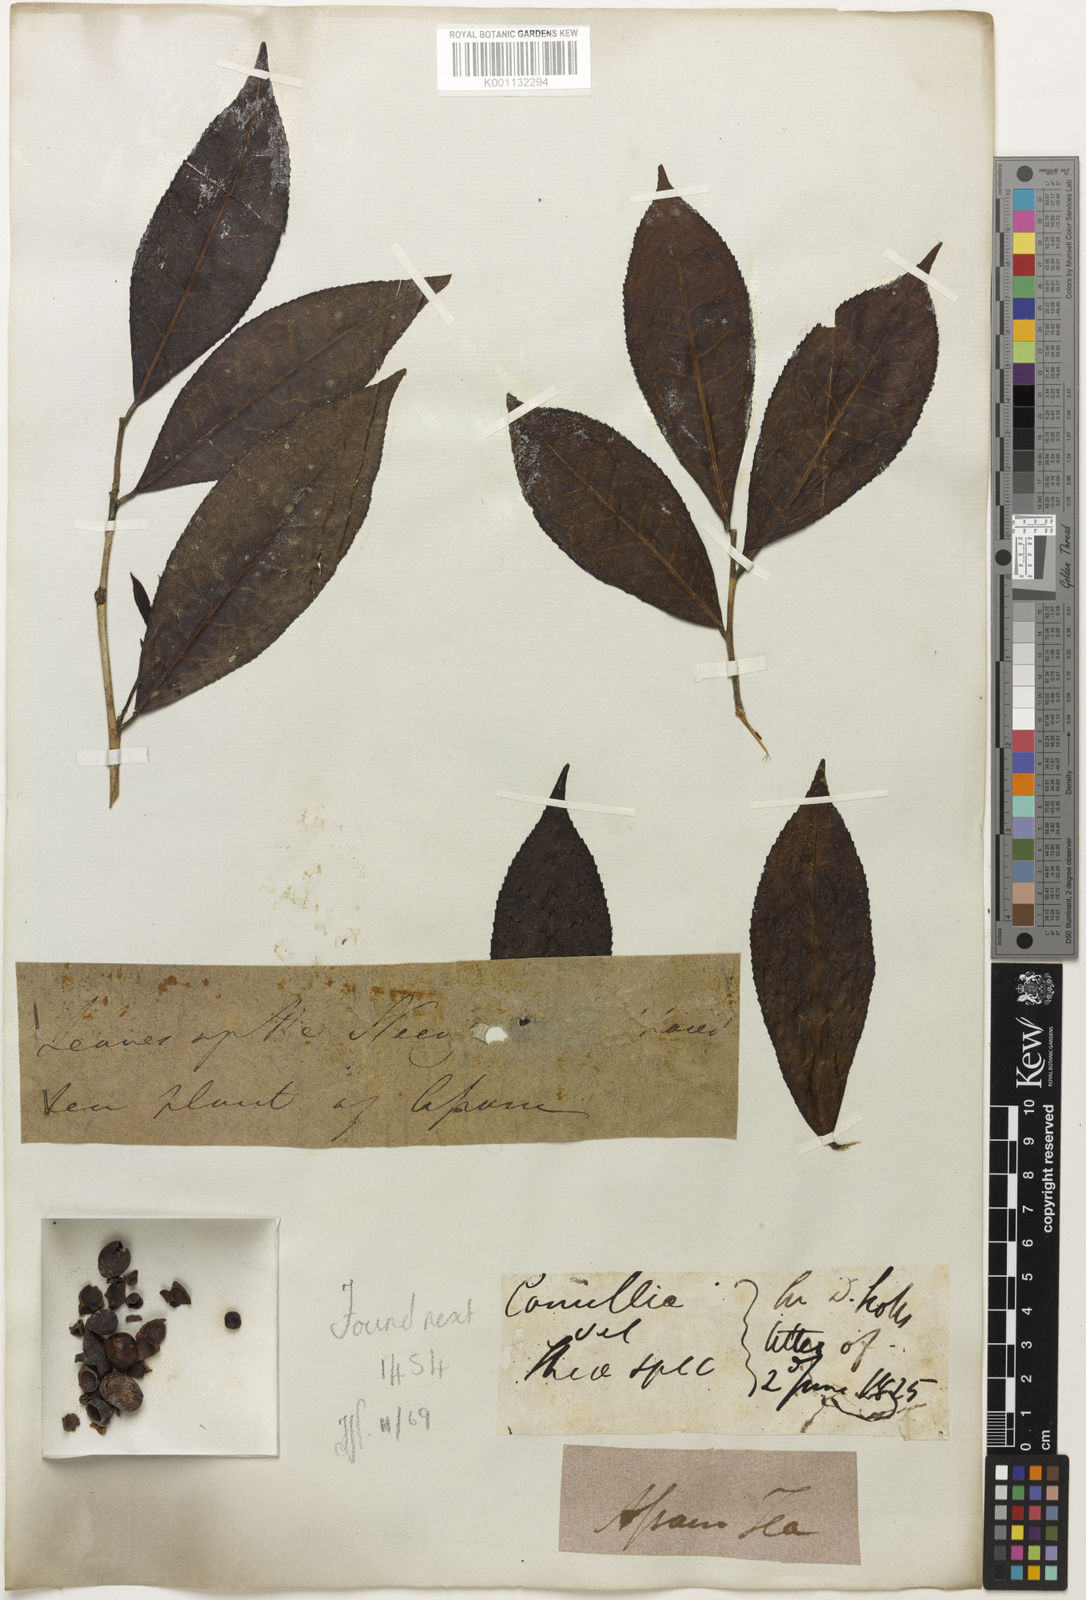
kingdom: Plantae
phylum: Tracheophyta
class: Magnoliopsida
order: Ericales
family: Theaceae
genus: Camellia
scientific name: Camellia
